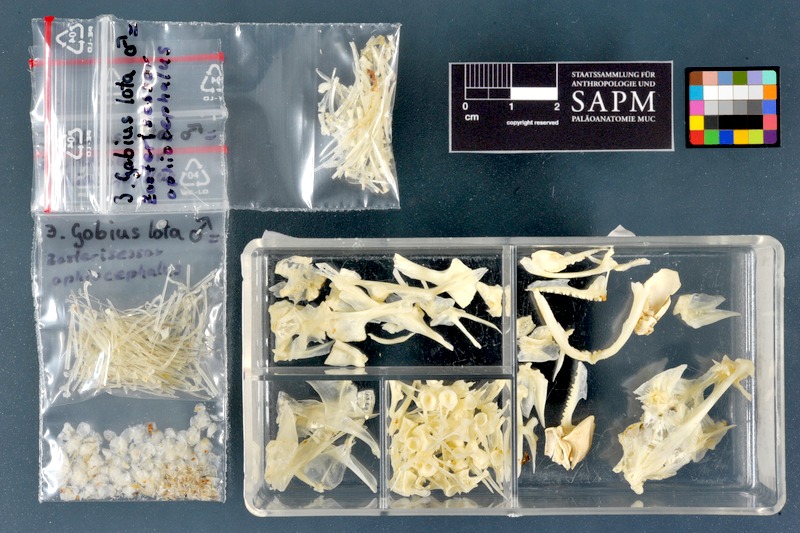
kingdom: Animalia
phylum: Chordata
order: Perciformes
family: Gobiidae
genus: Zosterisessor
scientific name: Zosterisessor ophiocephalus
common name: Grass goby
